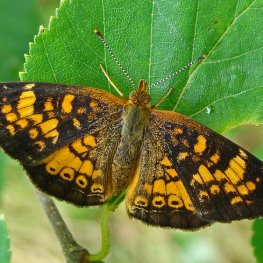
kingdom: Animalia
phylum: Arthropoda
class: Insecta
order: Lepidoptera
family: Nymphalidae
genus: Phyciodes
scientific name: Phyciodes tharos
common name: Northern Crescent
